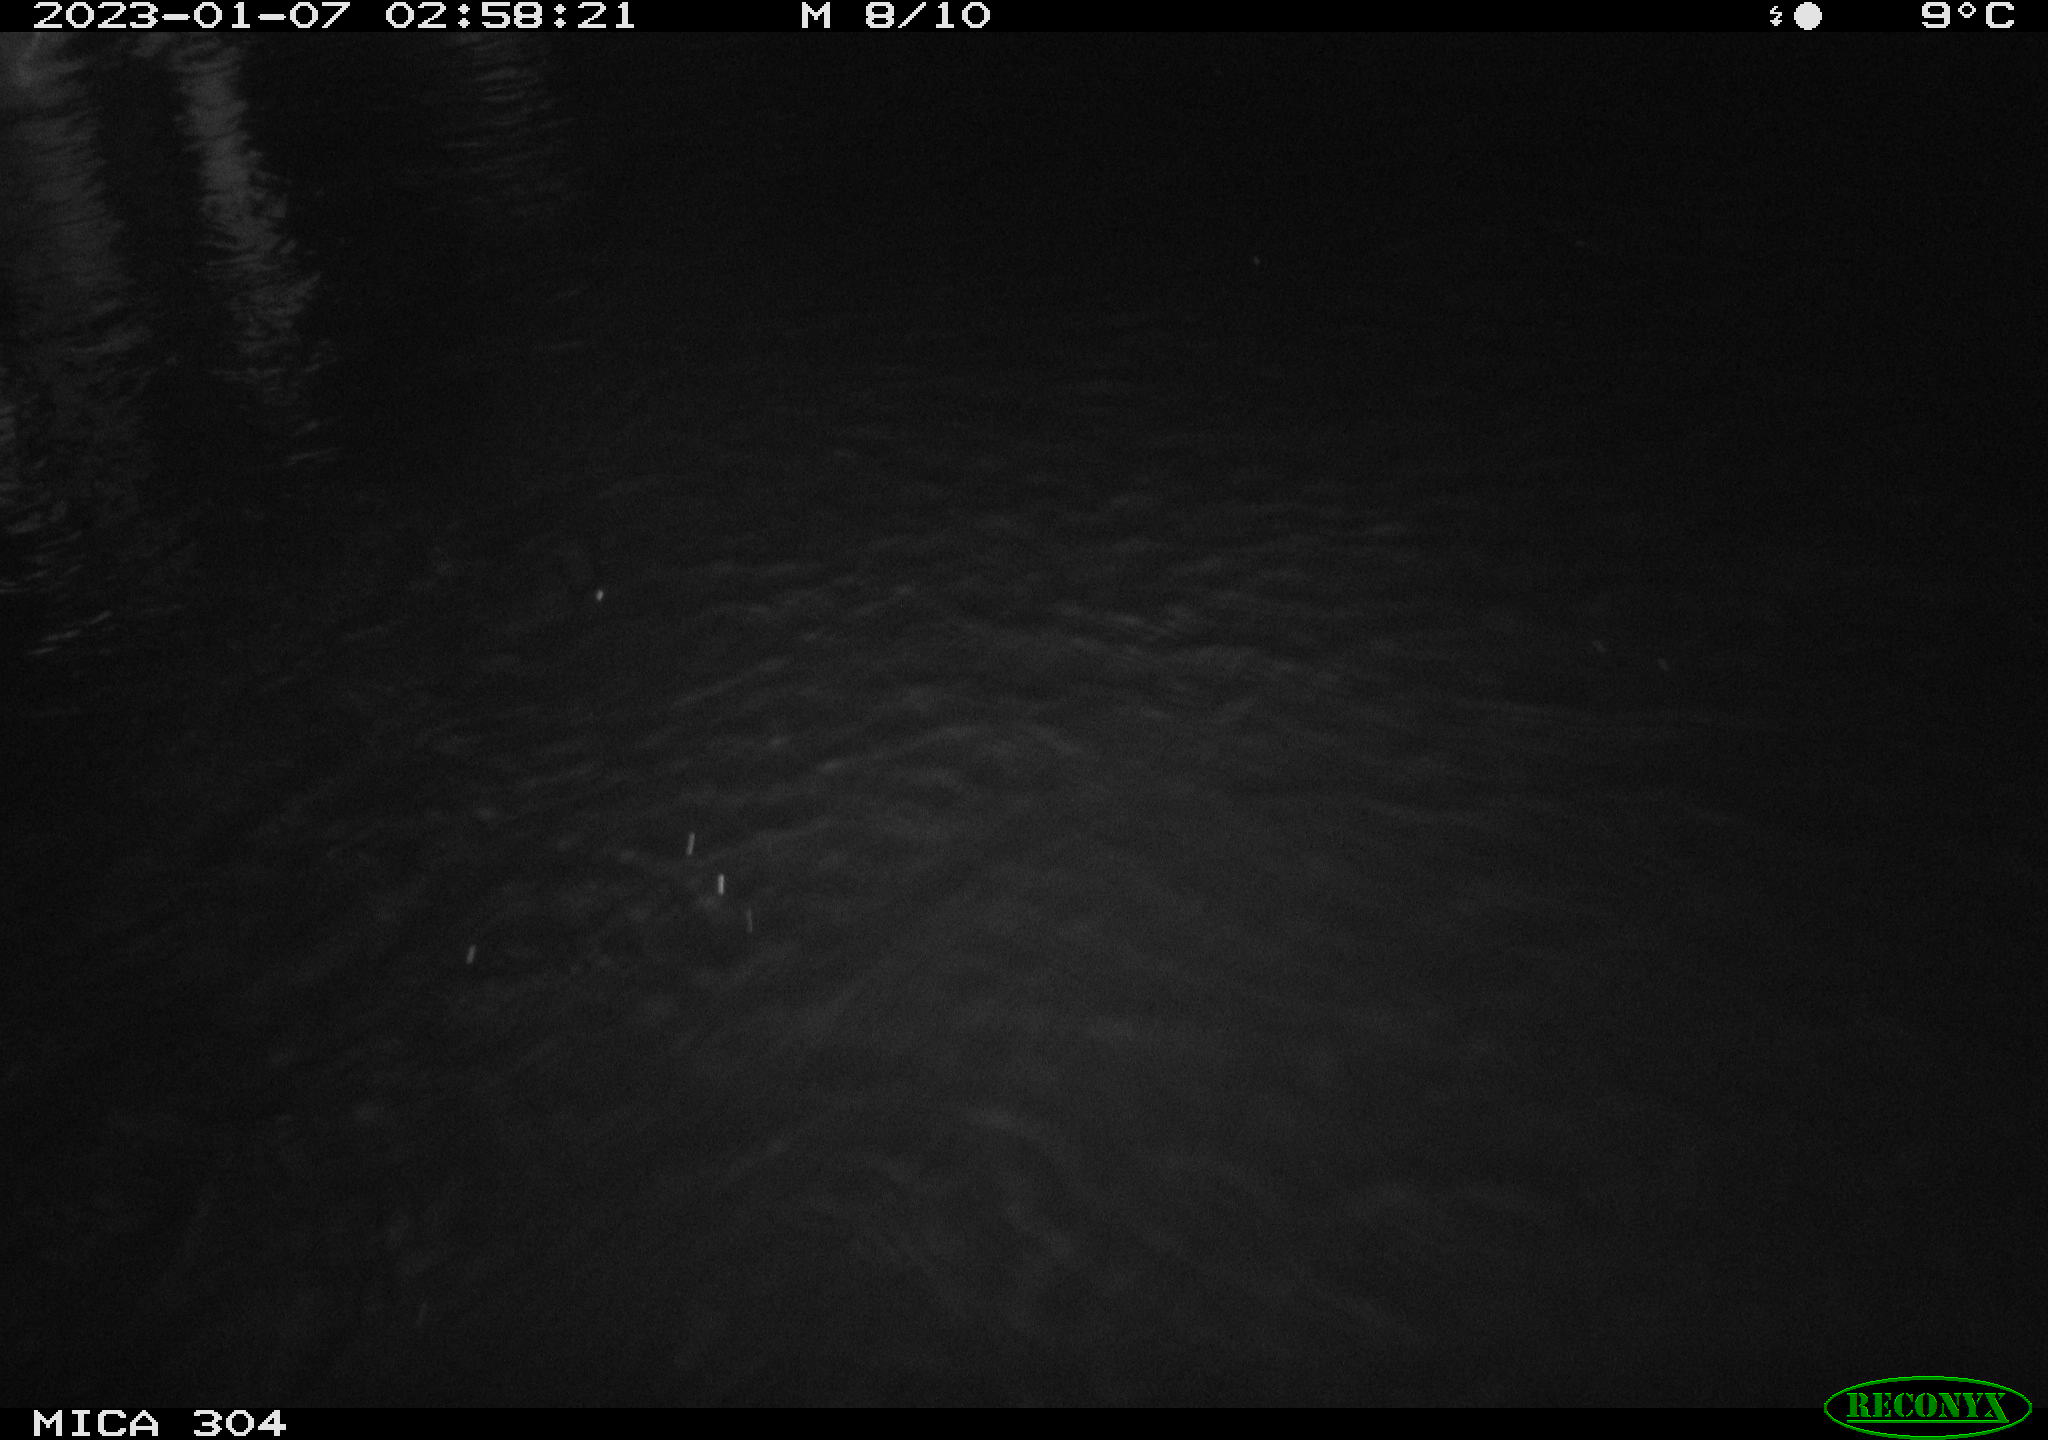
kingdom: Animalia
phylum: Chordata
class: Mammalia
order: Rodentia
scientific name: Rodentia
